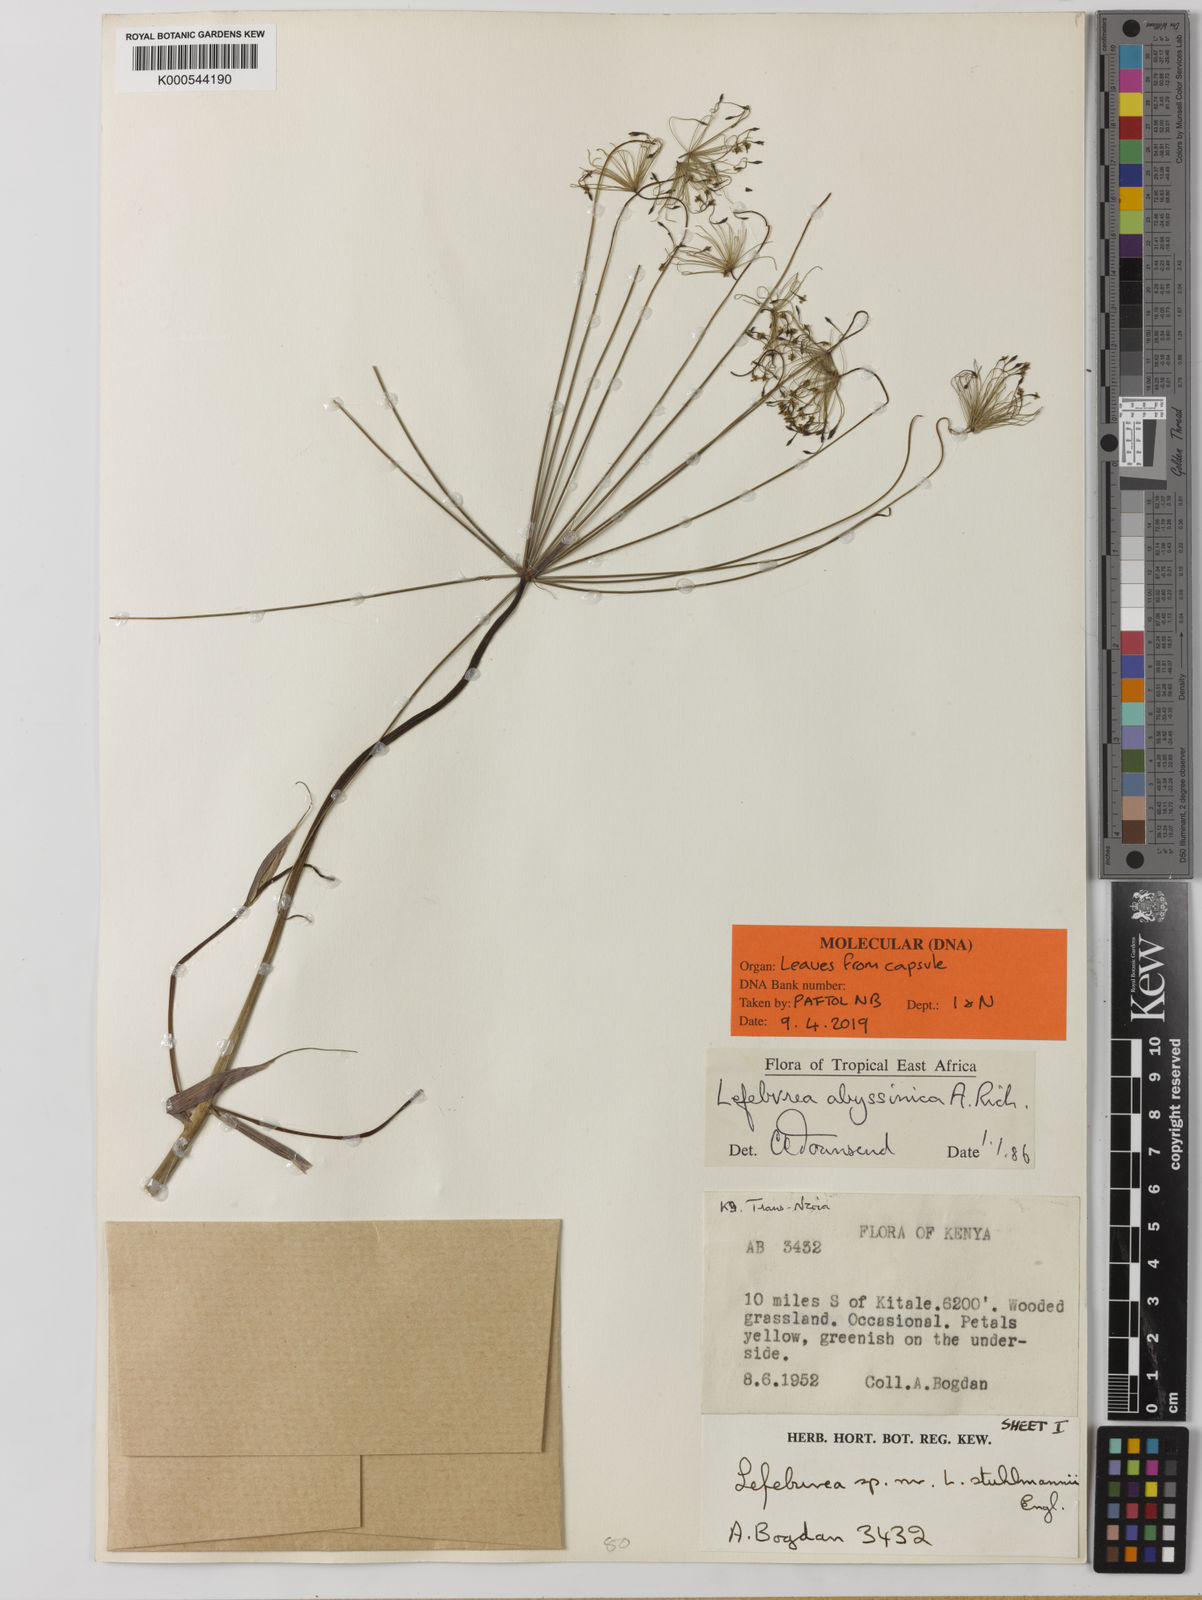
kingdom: Plantae
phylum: Tracheophyta
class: Magnoliopsida
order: Apiales
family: Apiaceae
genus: Lefebvrea
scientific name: Lefebvrea abyssinica
